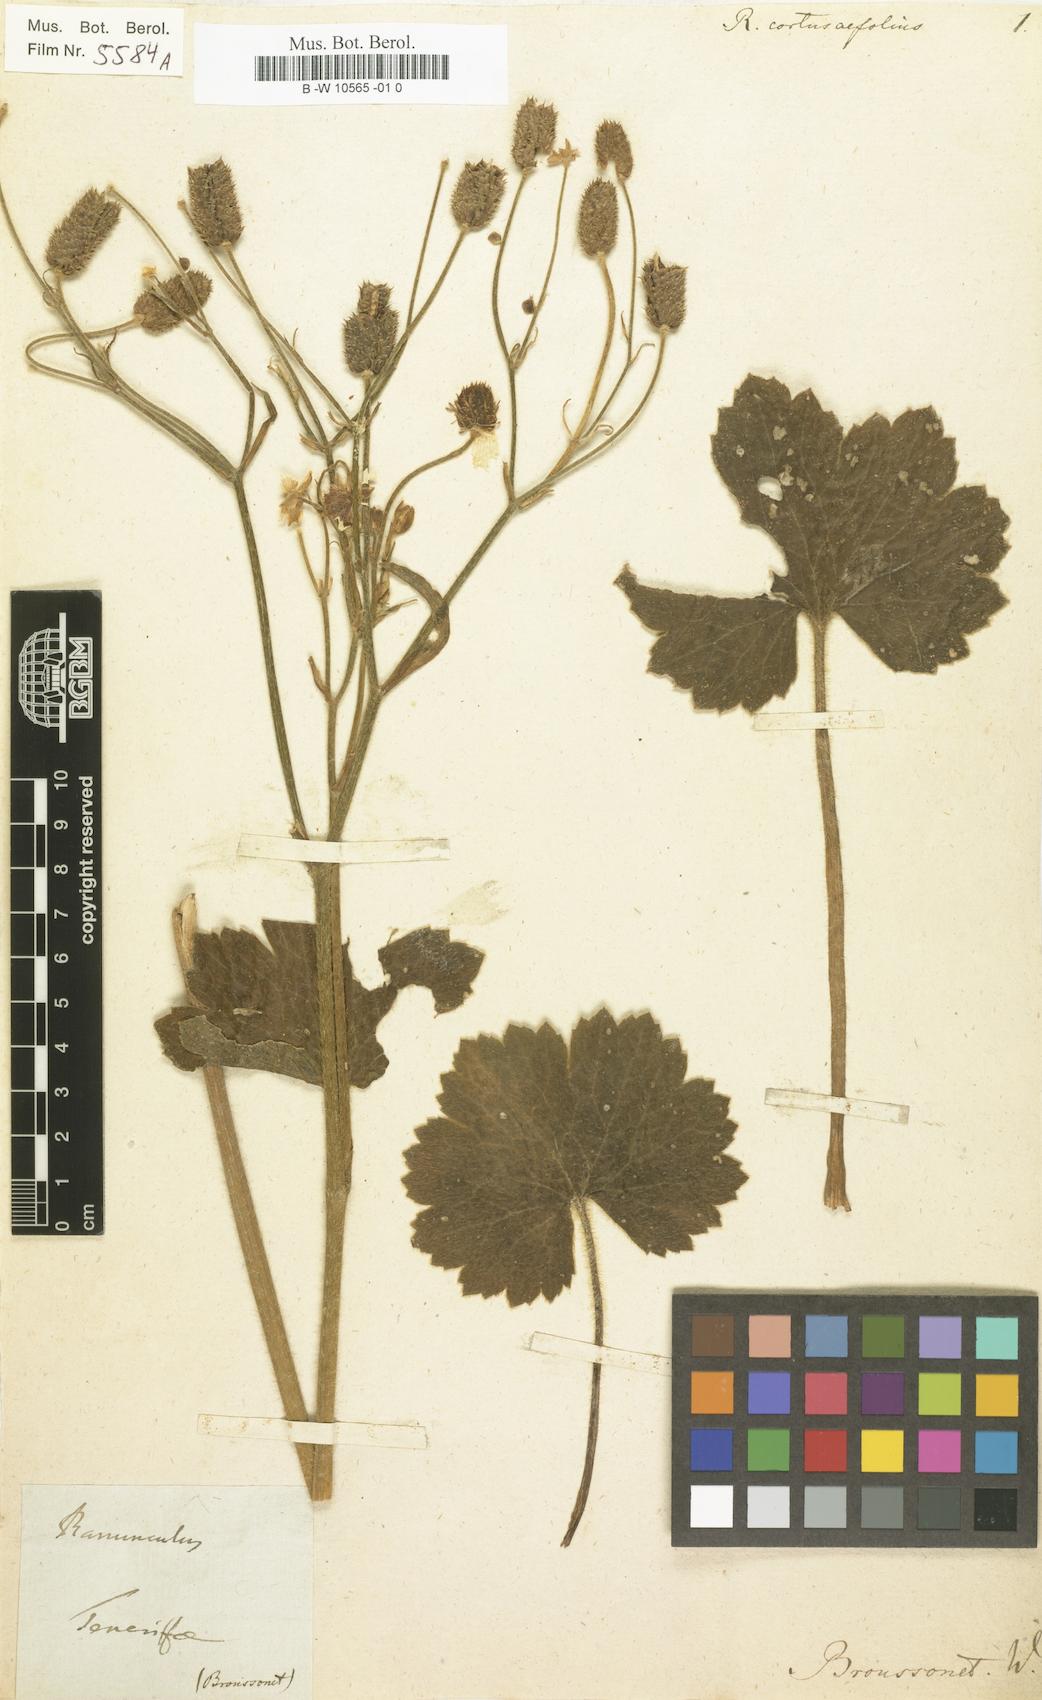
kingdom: Plantae
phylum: Tracheophyta
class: Magnoliopsida
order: Ranunculales
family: Ranunculaceae
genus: Ranunculus
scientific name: Ranunculus cortusifolius
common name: Azores buttercup
